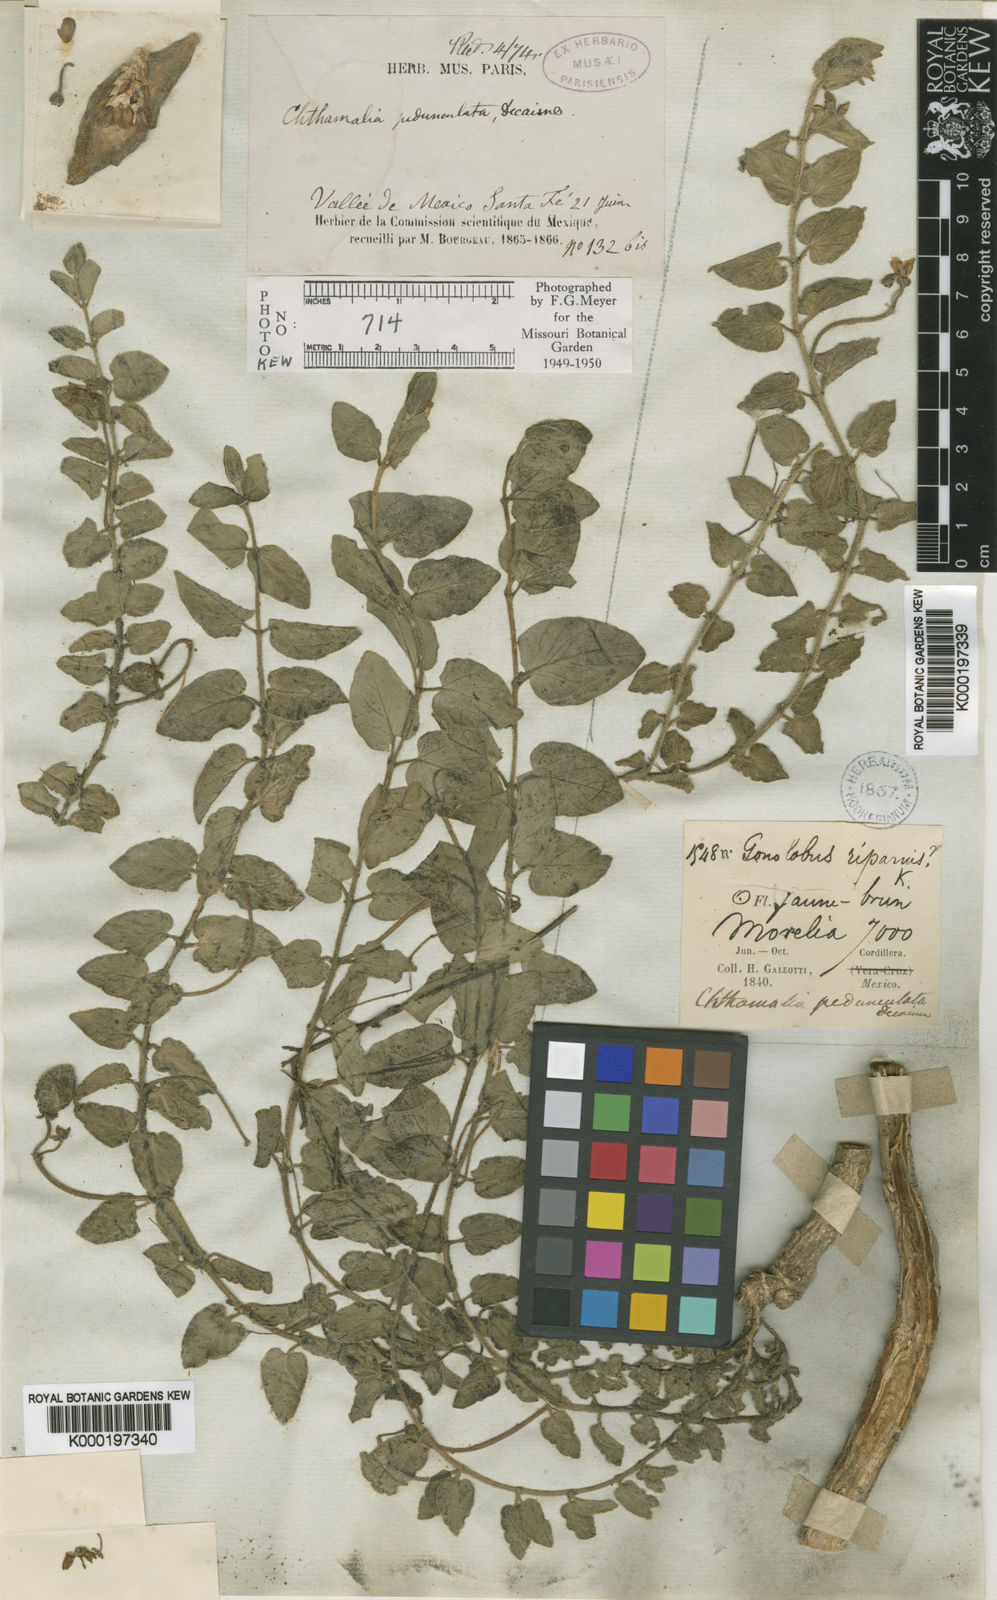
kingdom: Plantae
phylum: Tracheophyta
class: Magnoliopsida
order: Gentianales
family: Apocynaceae
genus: Chthamalia
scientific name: Chthamalia pedunculata
